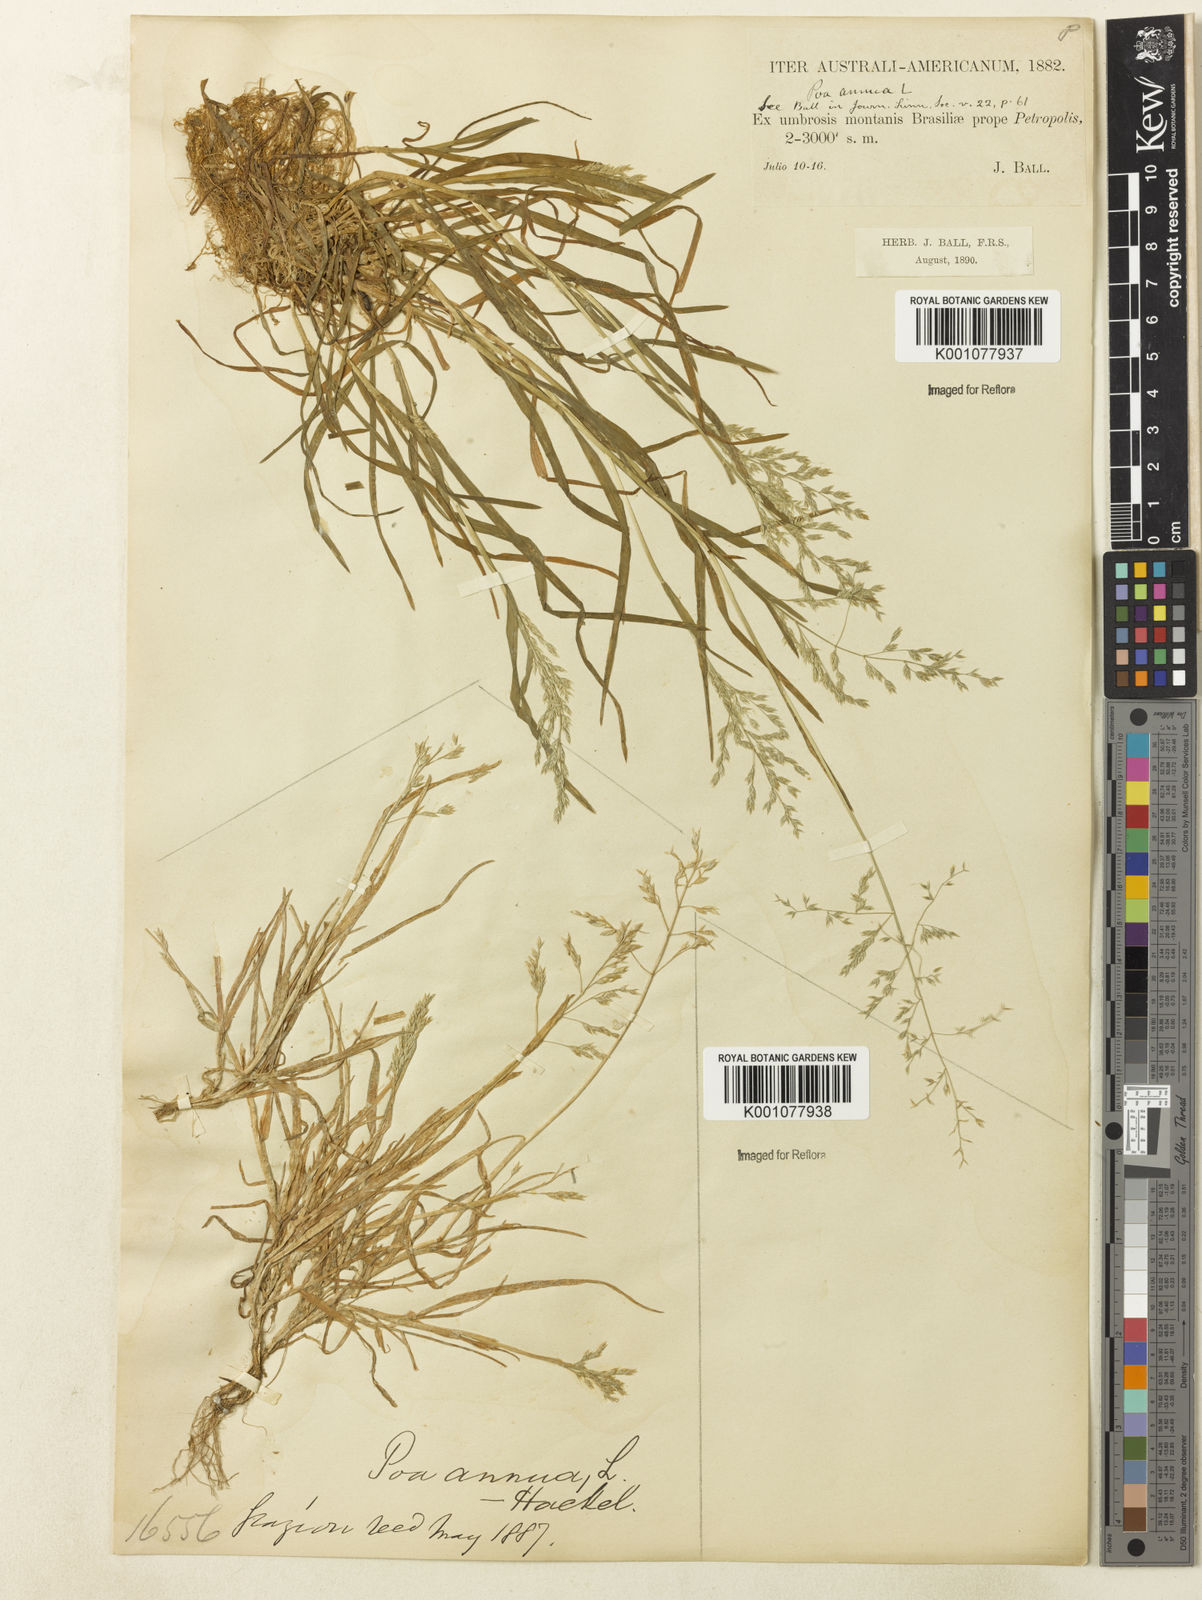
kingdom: Plantae
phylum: Tracheophyta
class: Liliopsida
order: Poales
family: Poaceae
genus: Poa
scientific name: Poa annua
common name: Annual bluegrass
